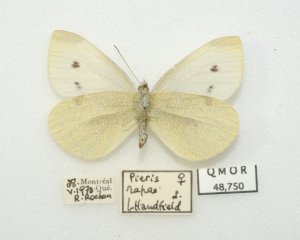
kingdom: Animalia
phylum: Arthropoda
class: Insecta
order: Lepidoptera
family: Pieridae
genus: Pieris
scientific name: Pieris rapae
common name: Cabbage White
